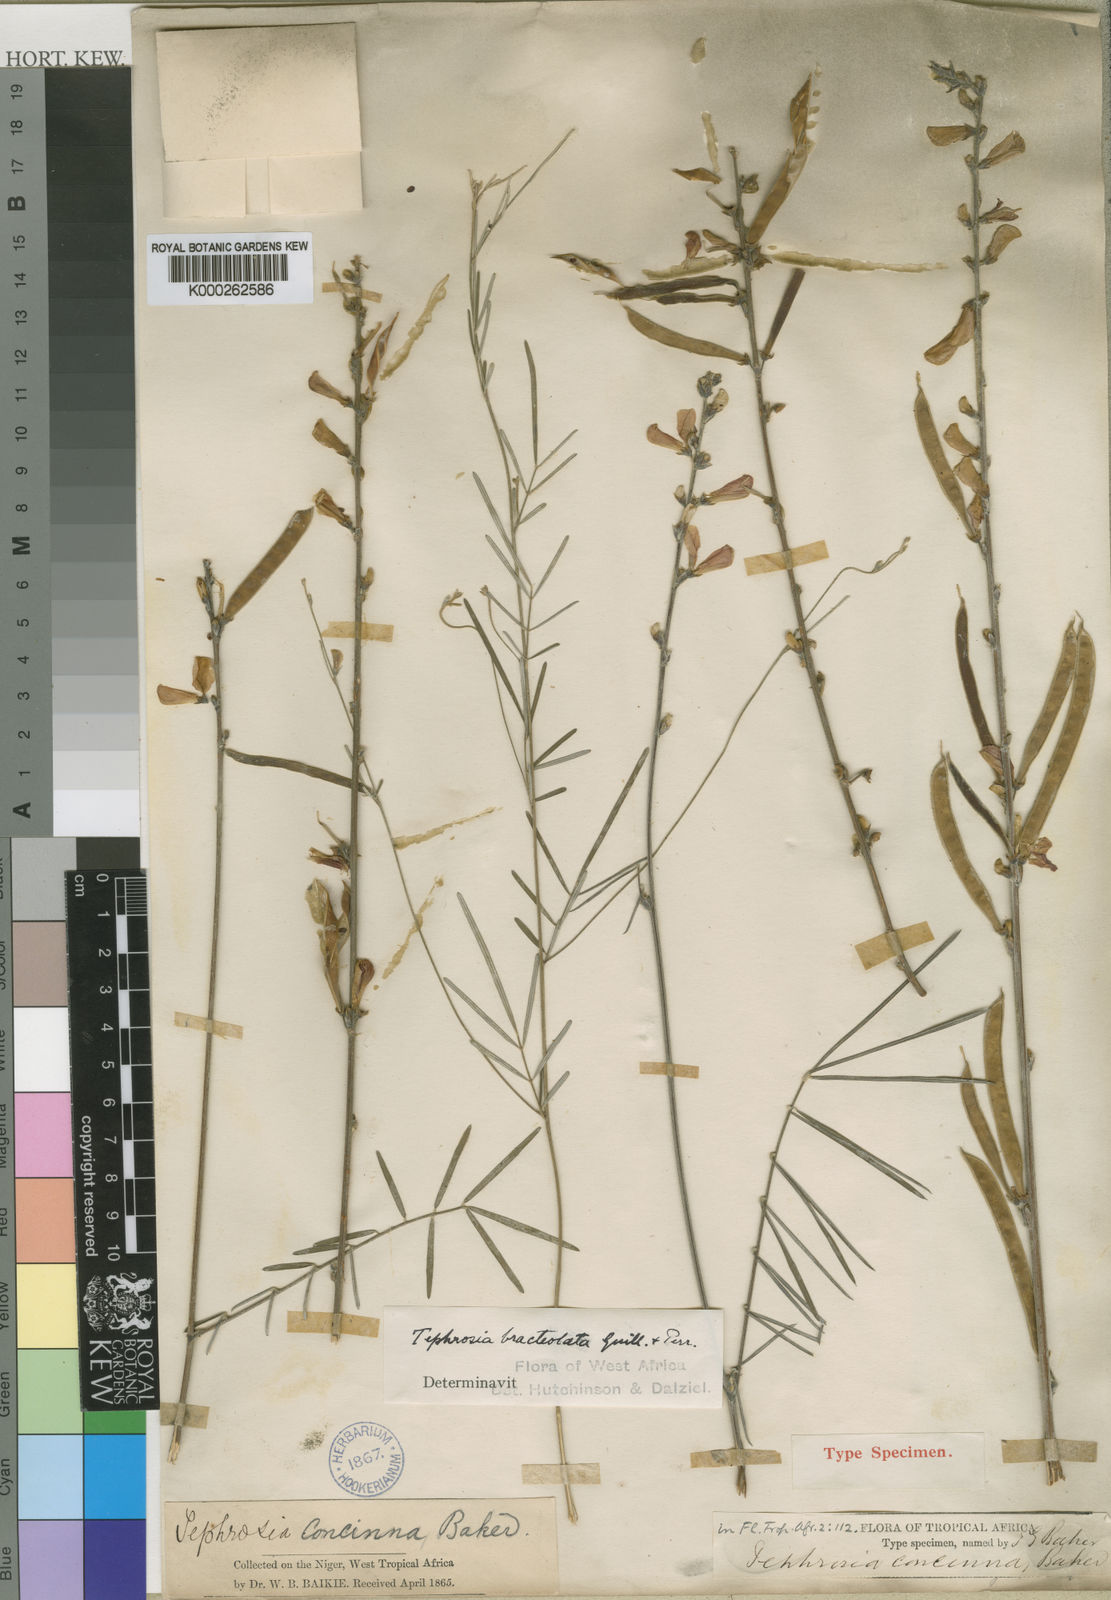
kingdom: Plantae
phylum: Tracheophyta
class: Magnoliopsida
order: Fabales
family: Fabaceae
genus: Tephrosia
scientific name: Tephrosia bracteolata
